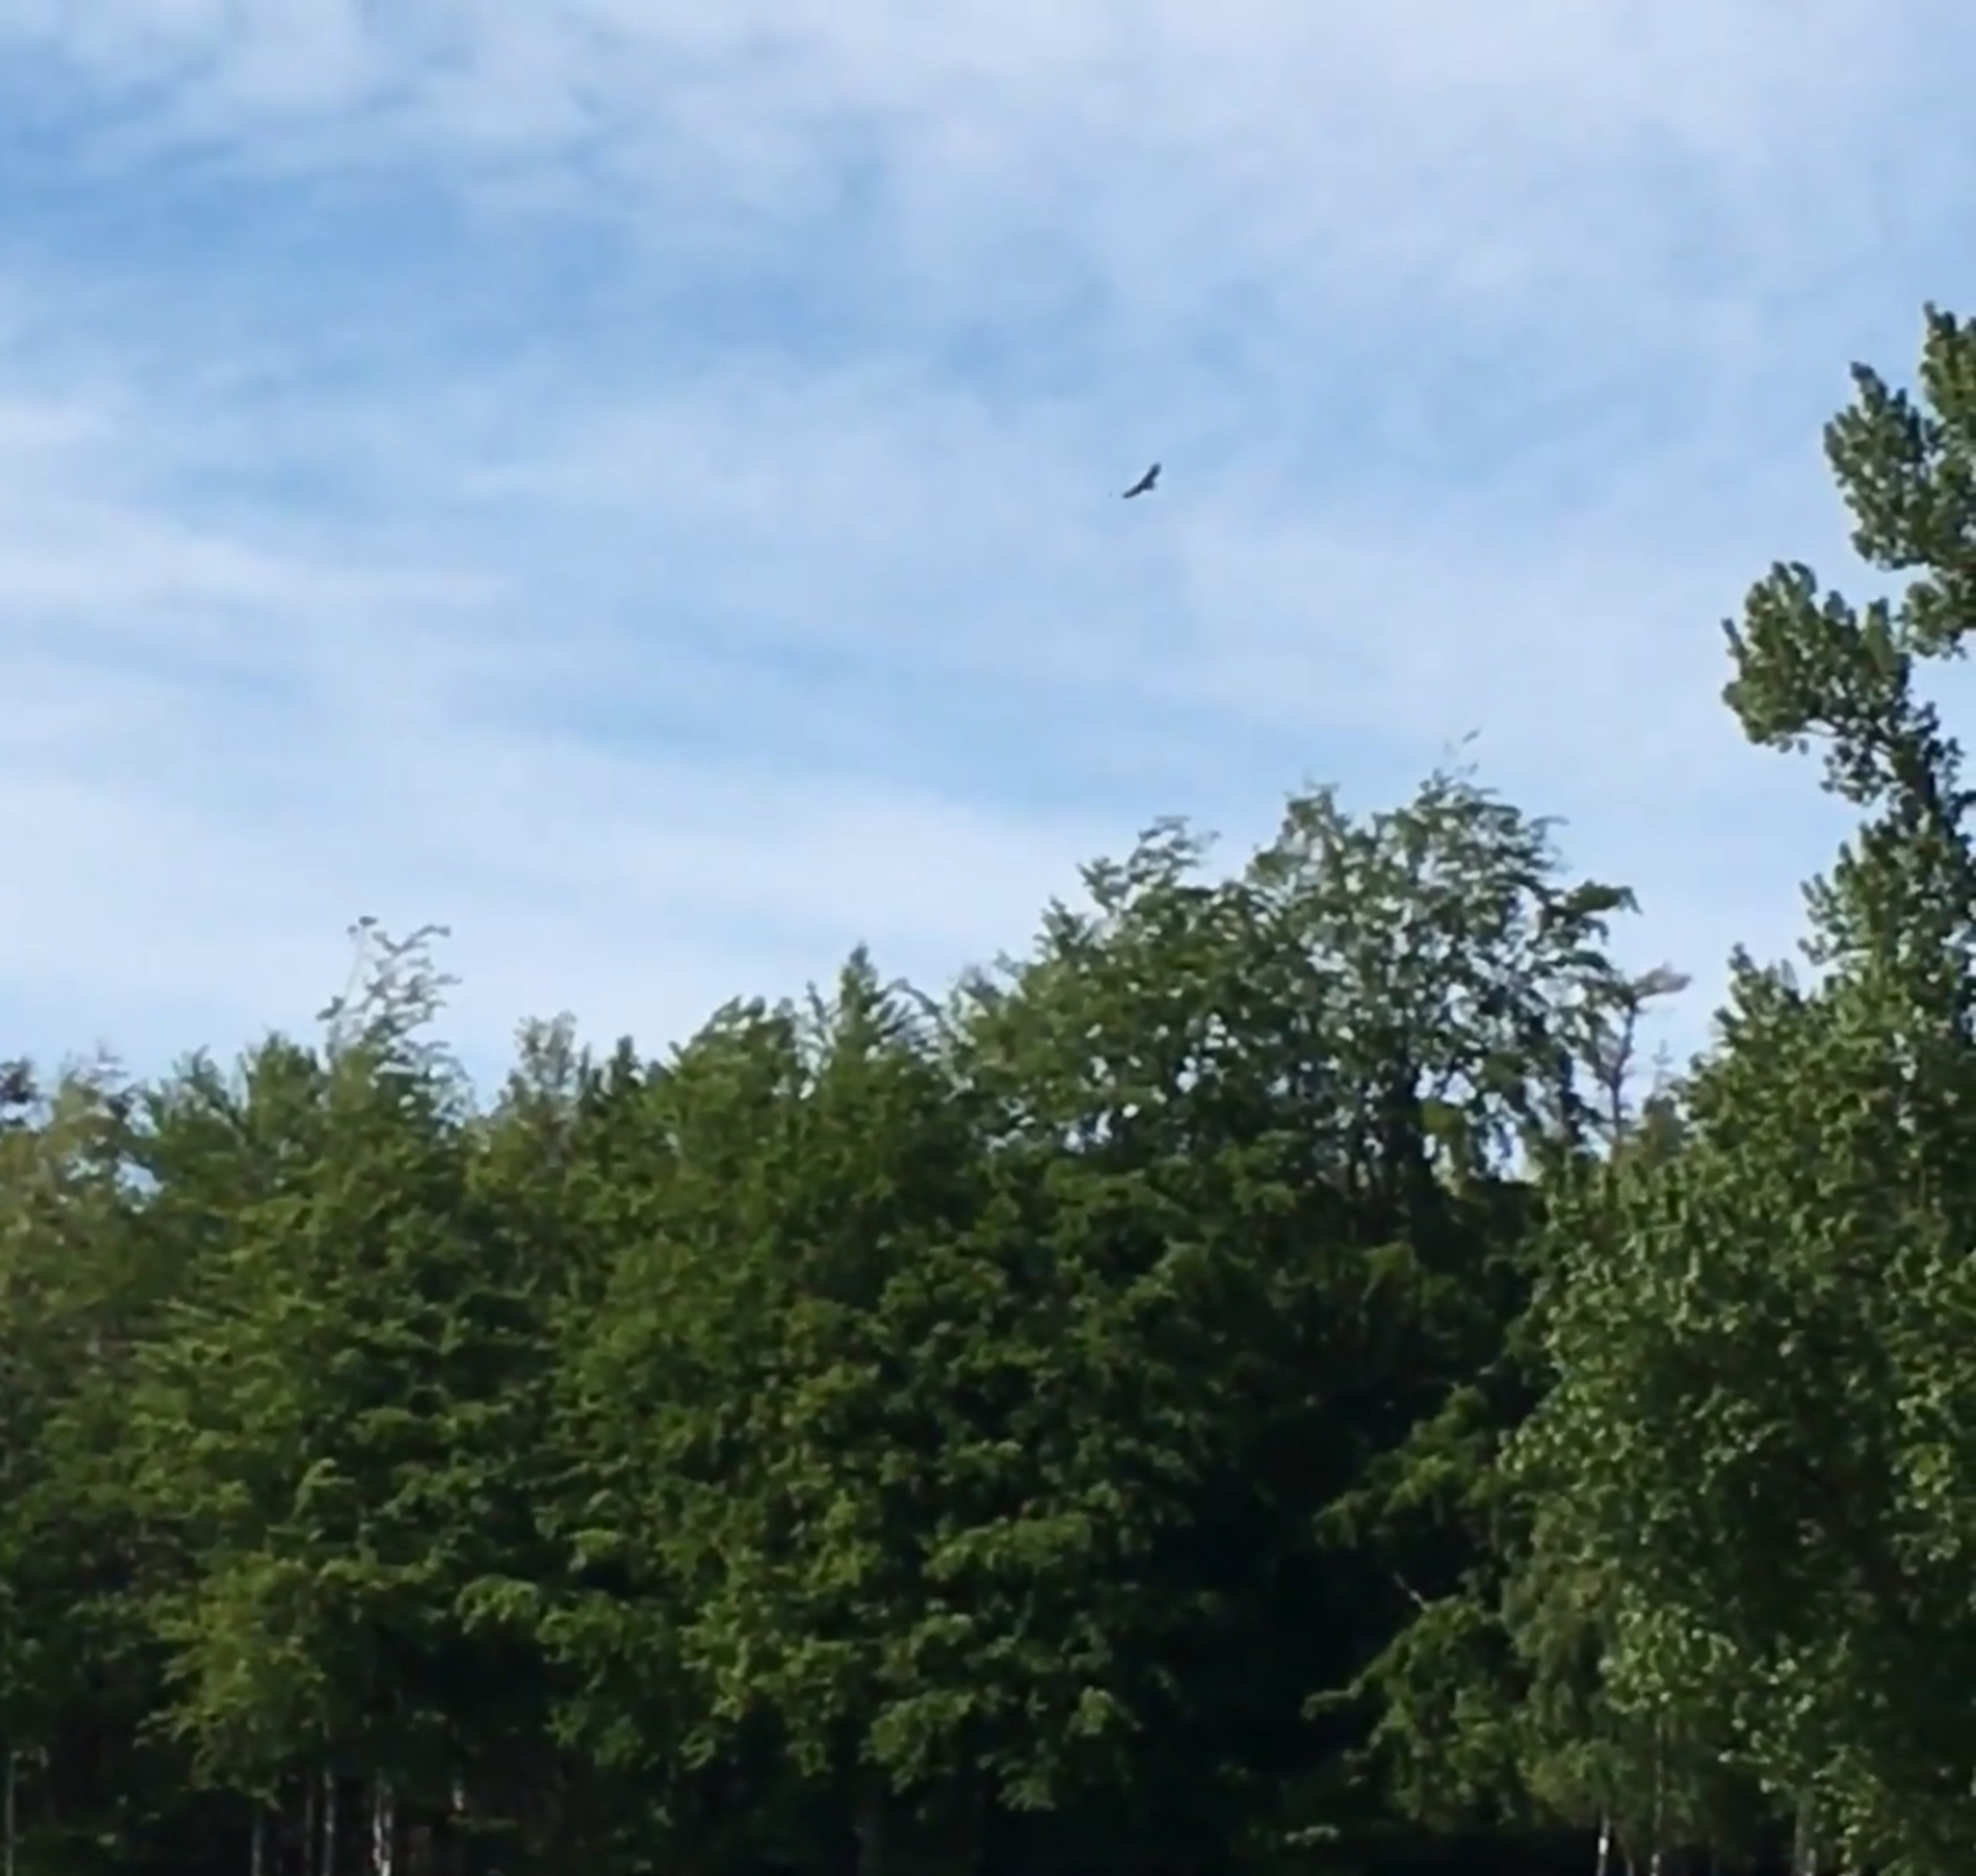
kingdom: Animalia
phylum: Chordata
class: Aves
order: Accipitriformes
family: Accipitridae
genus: Buteo
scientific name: Buteo buteo
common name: Musvåge
